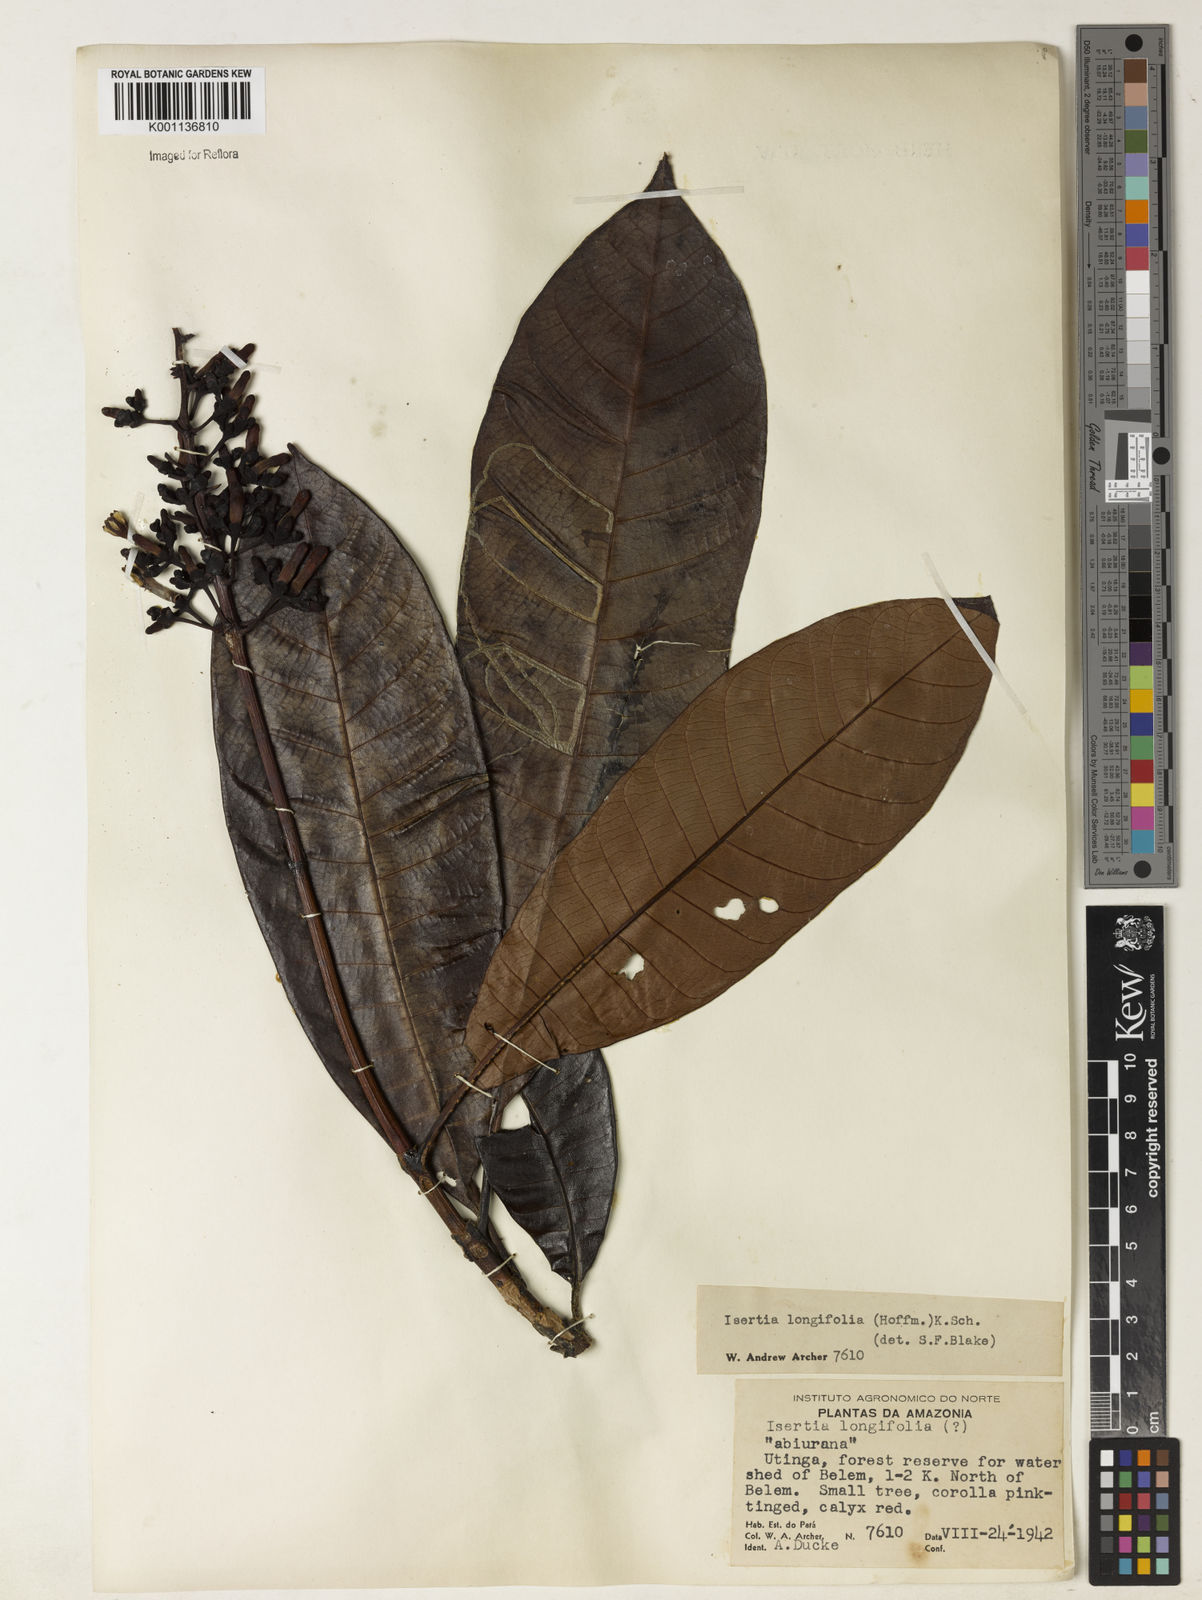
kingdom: Plantae
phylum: Tracheophyta
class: Magnoliopsida
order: Gentianales
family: Rubiaceae
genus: Isertia
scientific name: Isertia longifolia
